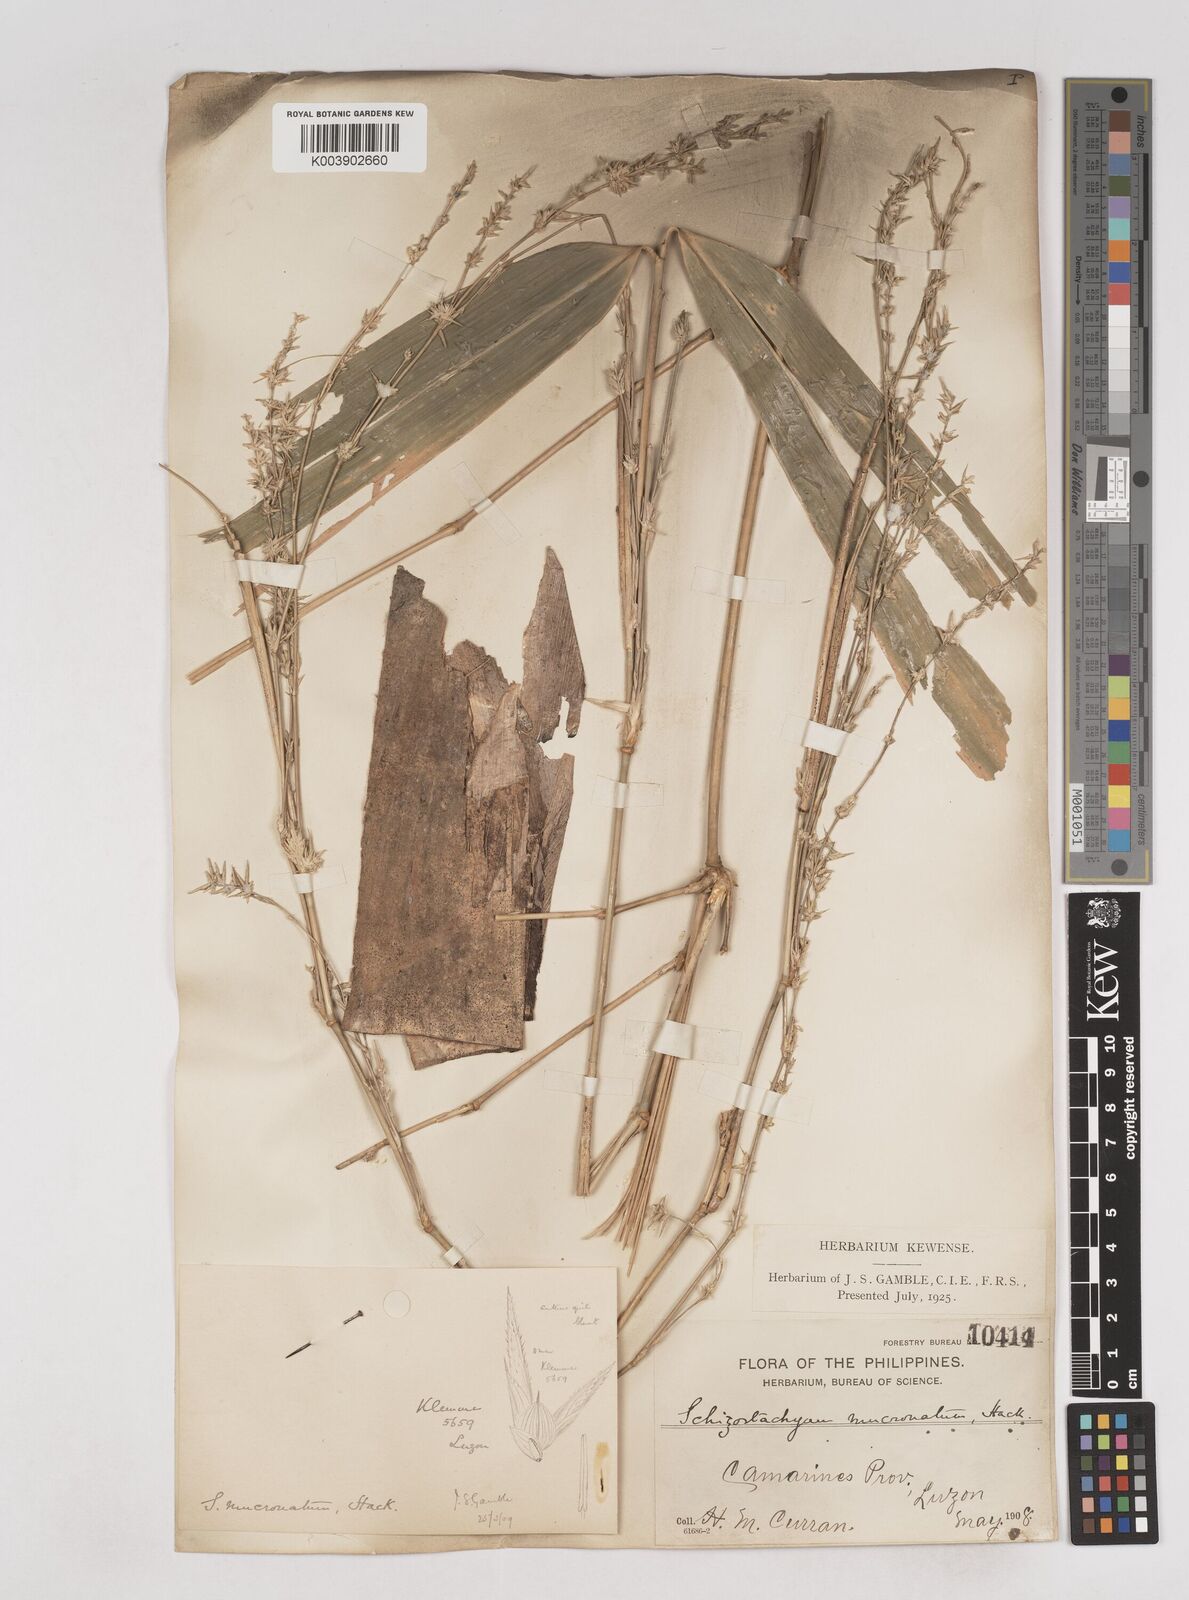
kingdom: Plantae
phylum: Tracheophyta
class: Liliopsida
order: Poales
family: Poaceae
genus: Schizostachyum
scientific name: Schizostachyum lumampao
